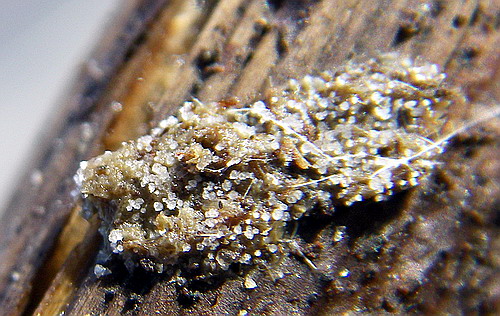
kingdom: Fungi
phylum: Ascomycota
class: Leotiomycetes
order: Thelebolales
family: Thelebolaceae
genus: Ascozonus
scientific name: Ascozonus woolhopensis
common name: vinter-ringsæk
